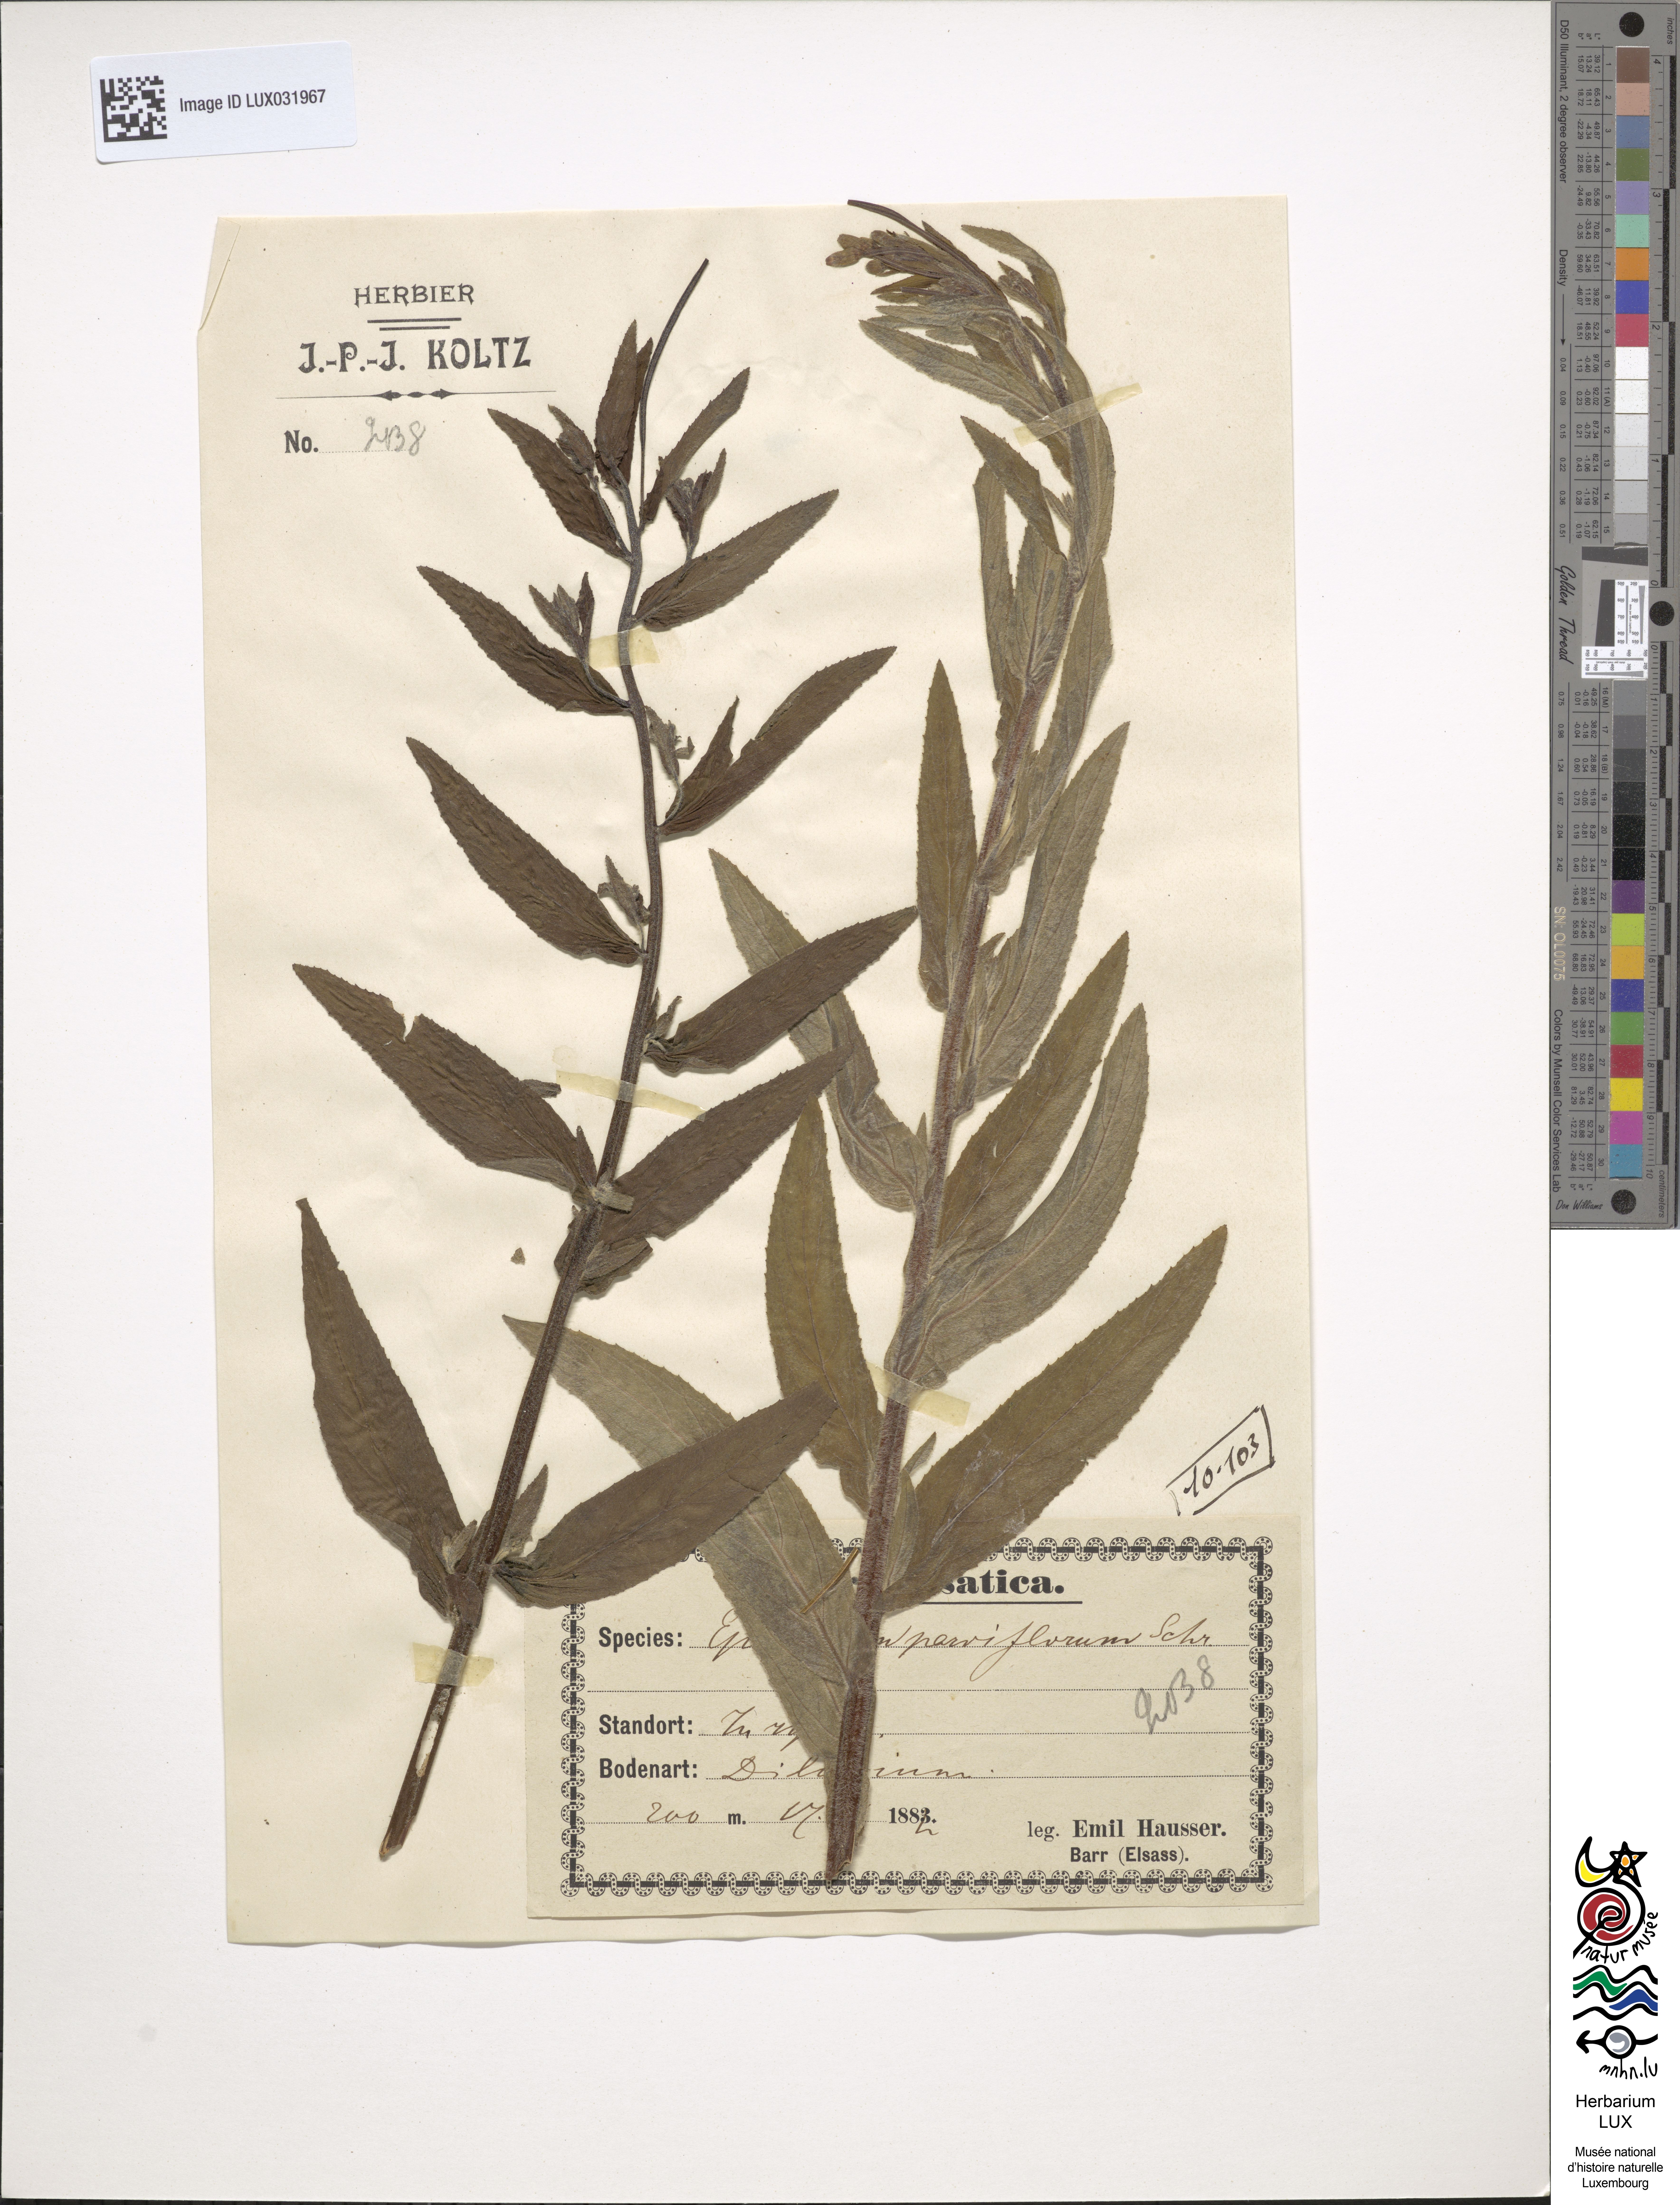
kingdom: Plantae
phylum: Tracheophyta
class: Magnoliopsida
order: Myrtales
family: Onagraceae
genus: Epilobium
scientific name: Epilobium parviflorum
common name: Hoary willowherb
